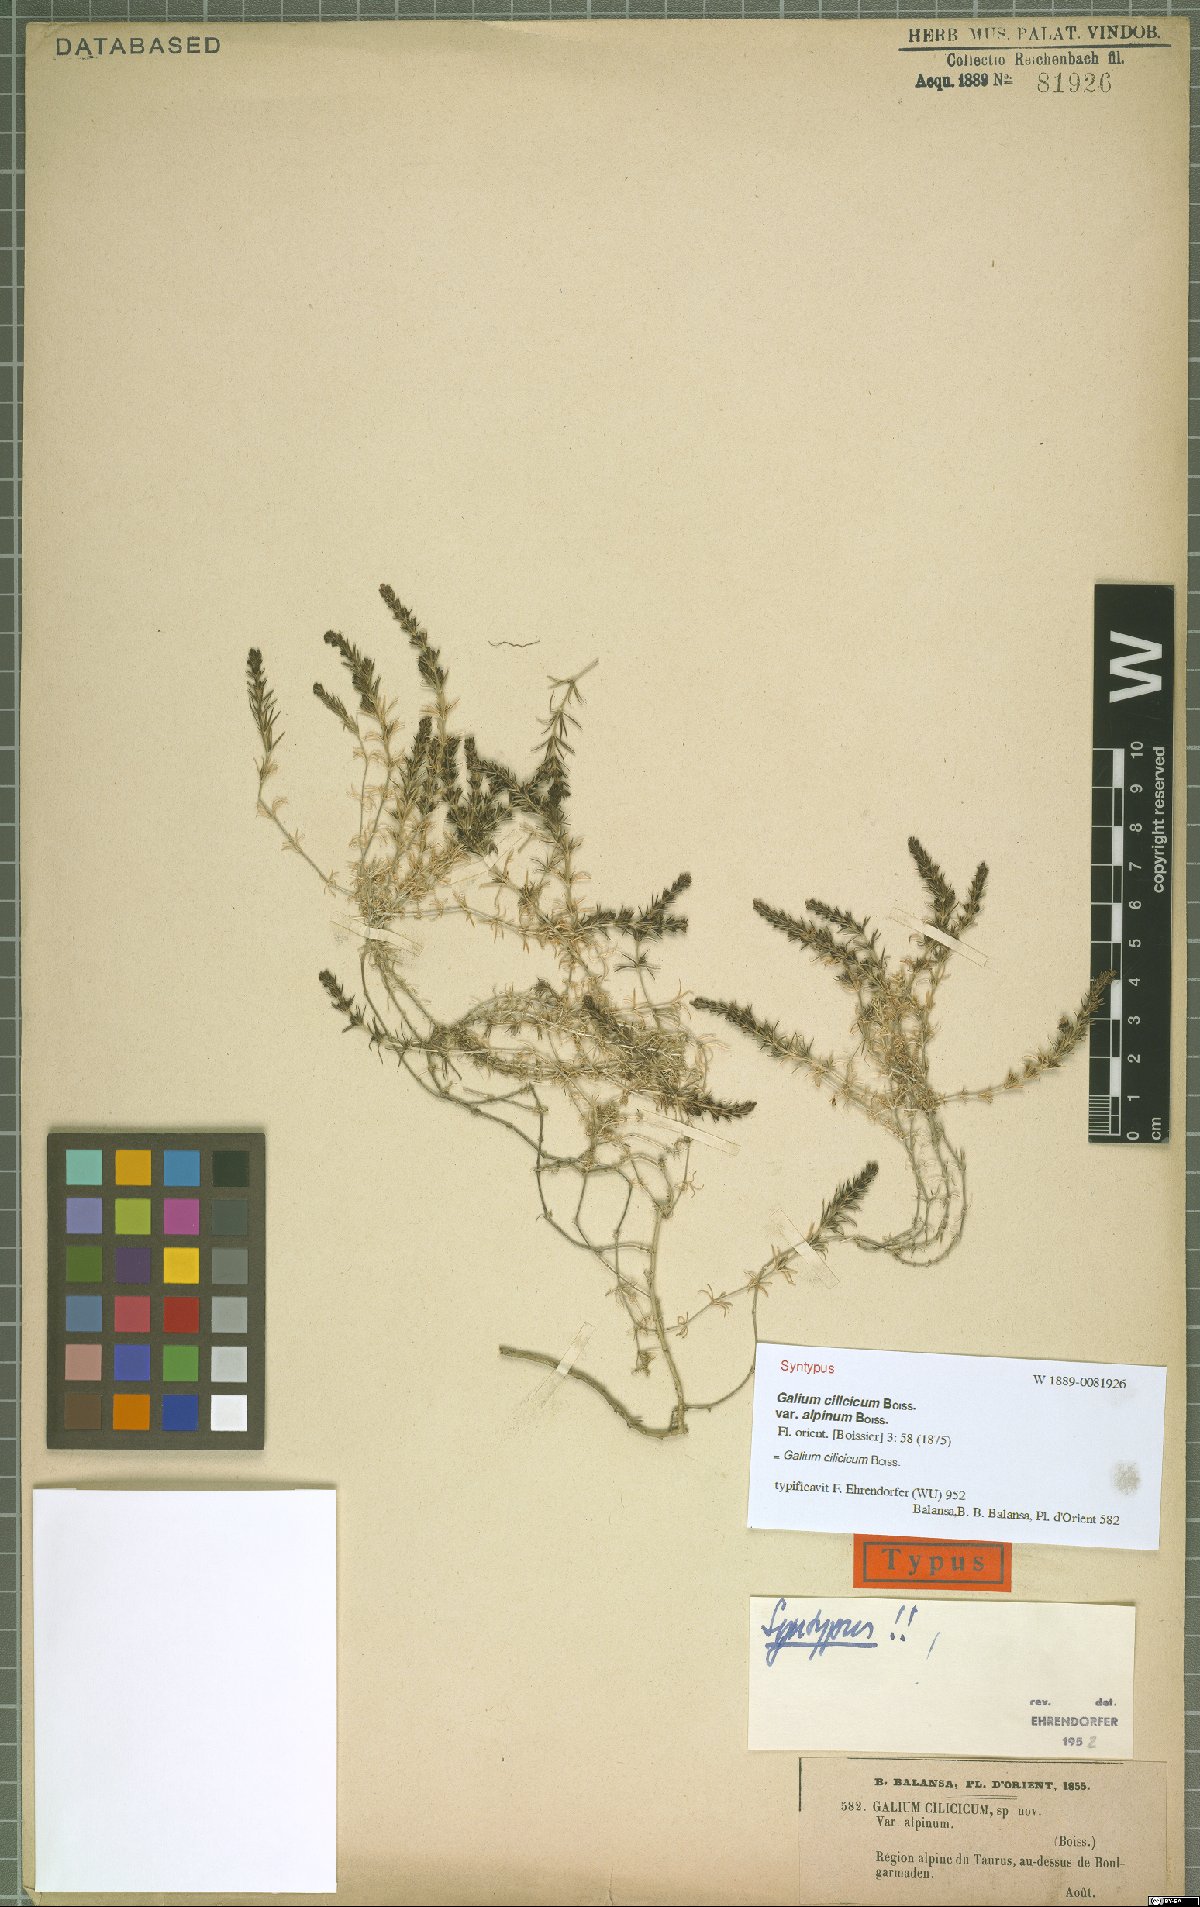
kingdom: Plantae
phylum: Tracheophyta
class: Magnoliopsida
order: Gentianales
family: Rubiaceae
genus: Galium
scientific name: Galium cilicicum
